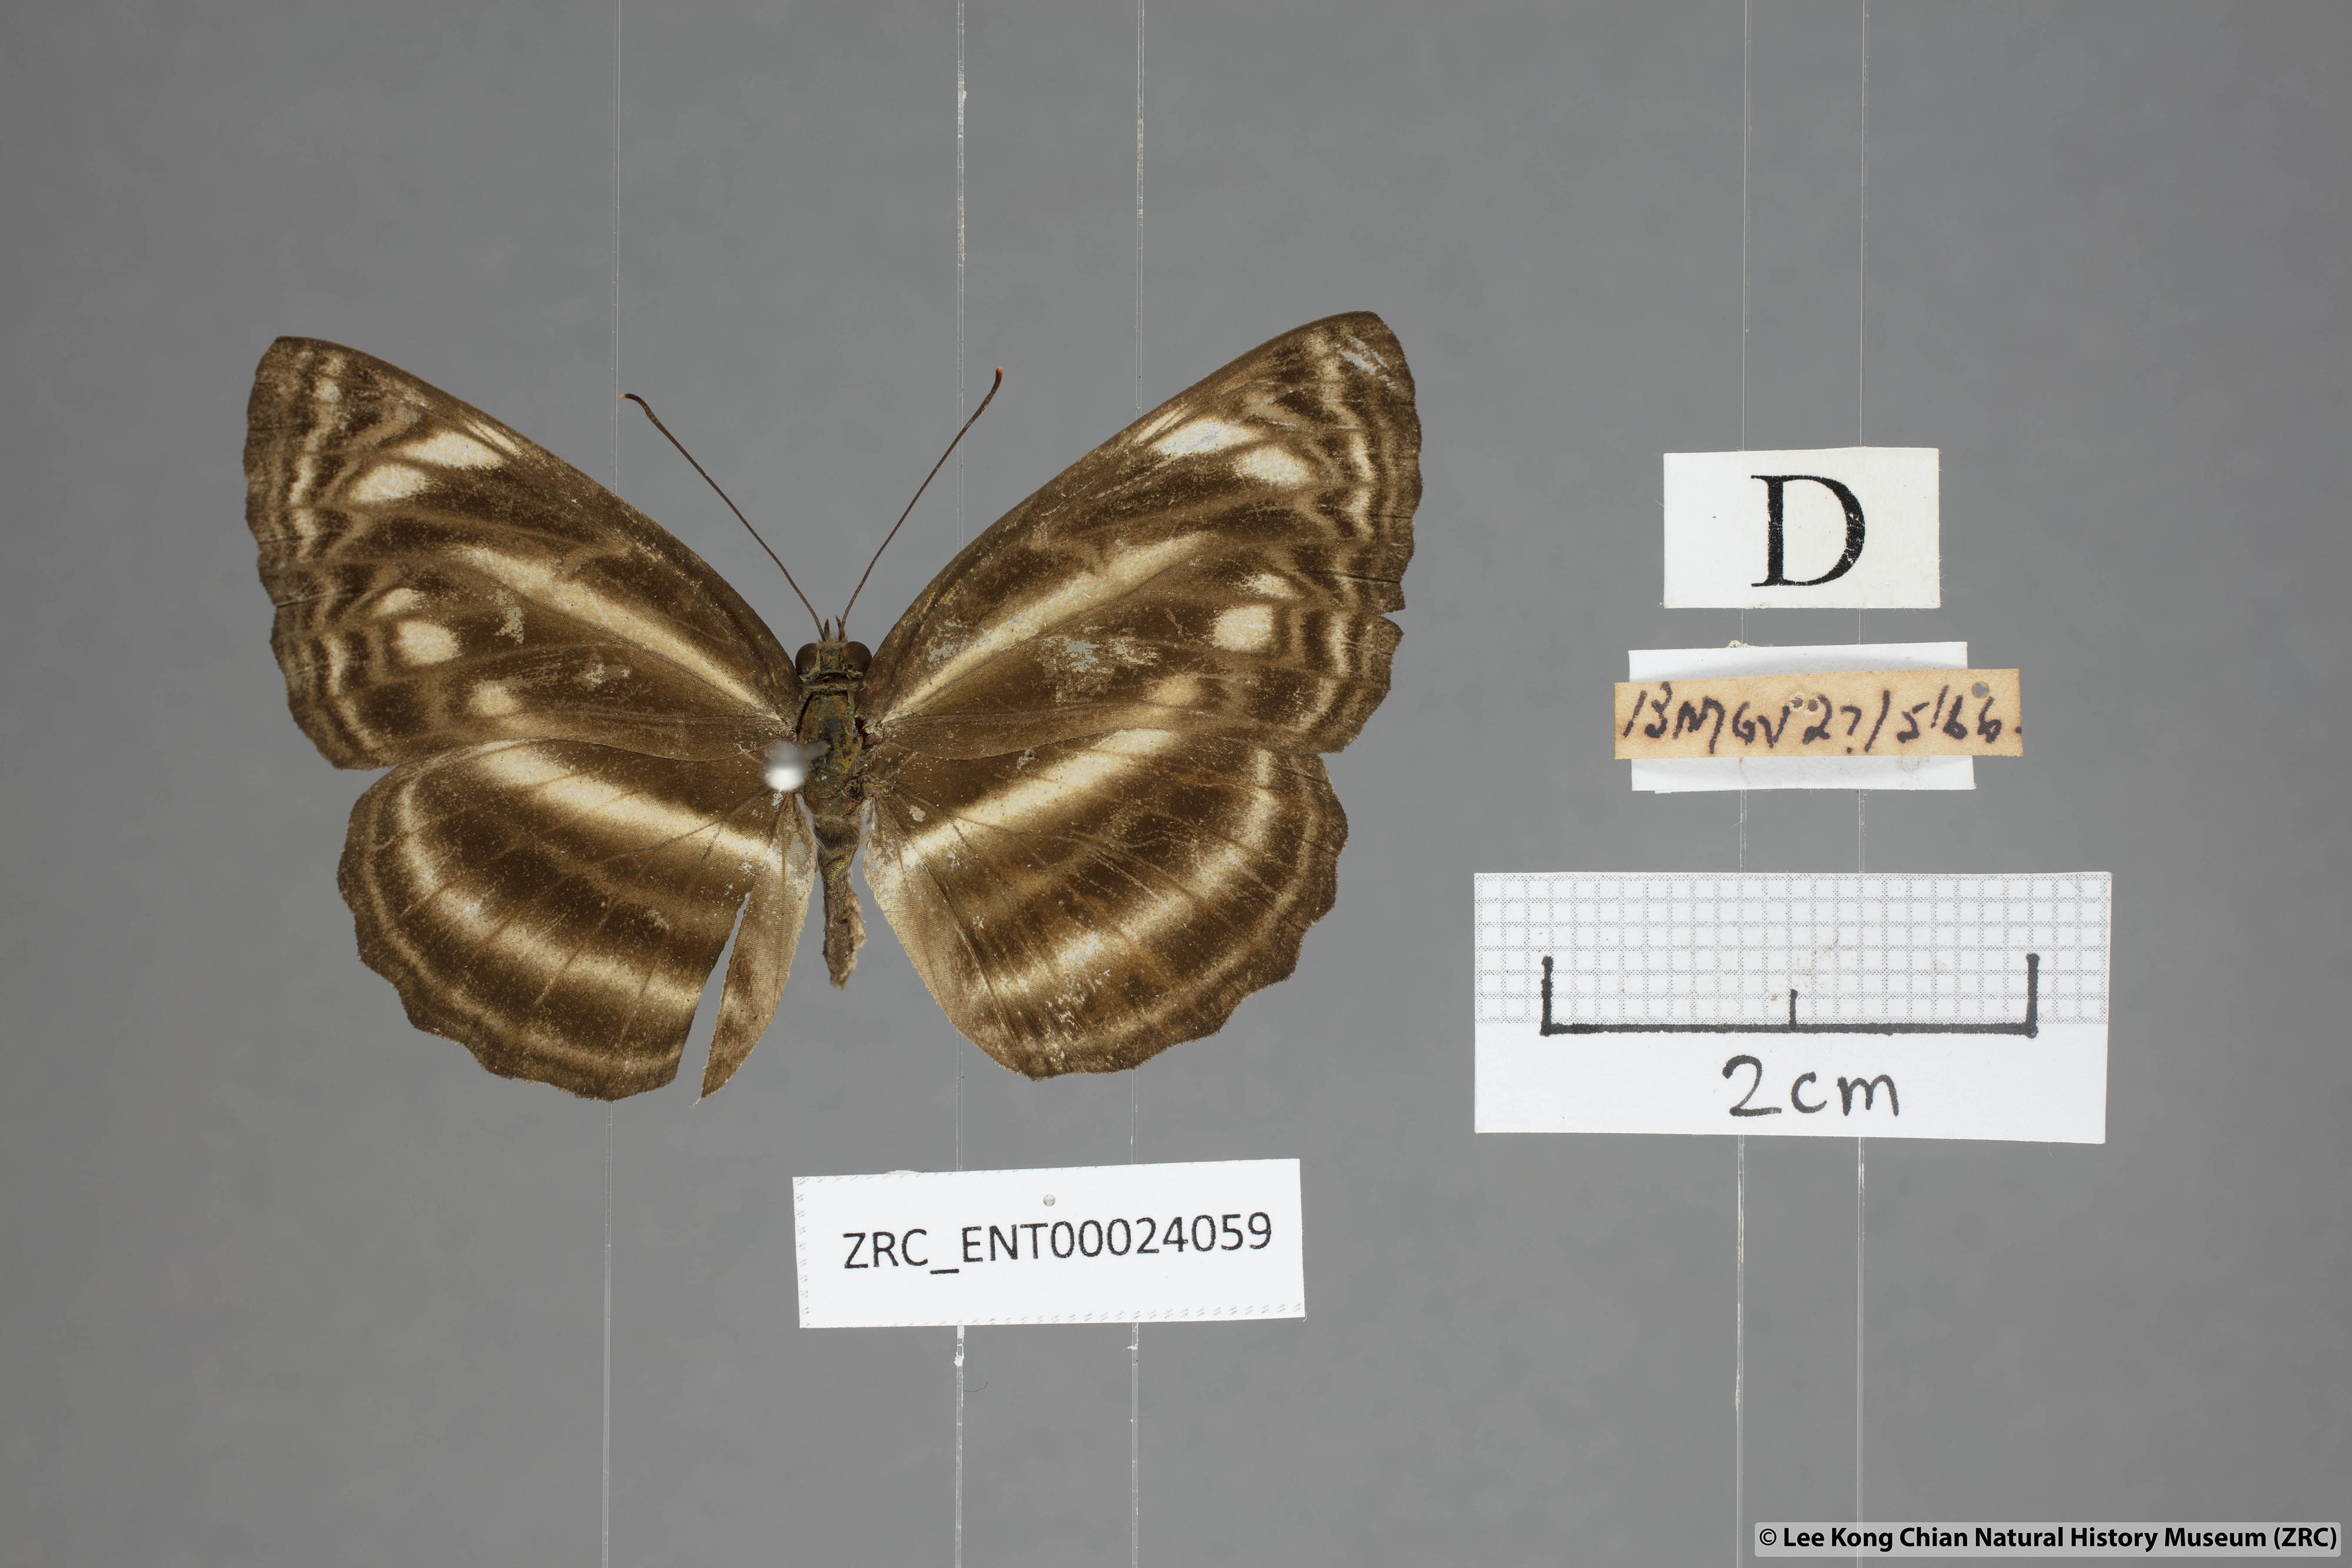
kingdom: Animalia
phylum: Arthropoda
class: Insecta
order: Lepidoptera
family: Nymphalidae
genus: Neptis
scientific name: Neptis omeroda
